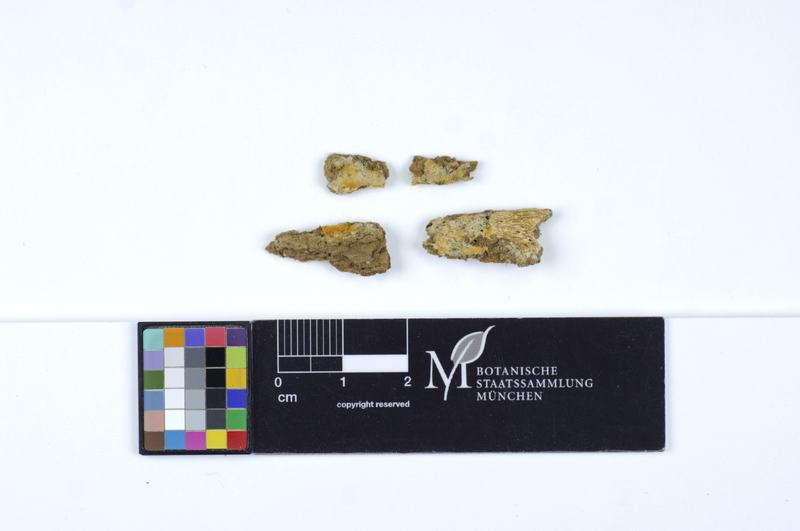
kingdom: Fungi
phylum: Basidiomycota
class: Agaricomycetes
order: Polyporales
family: Phanerochaetaceae
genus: Riopa
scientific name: Riopa metamorphosa
